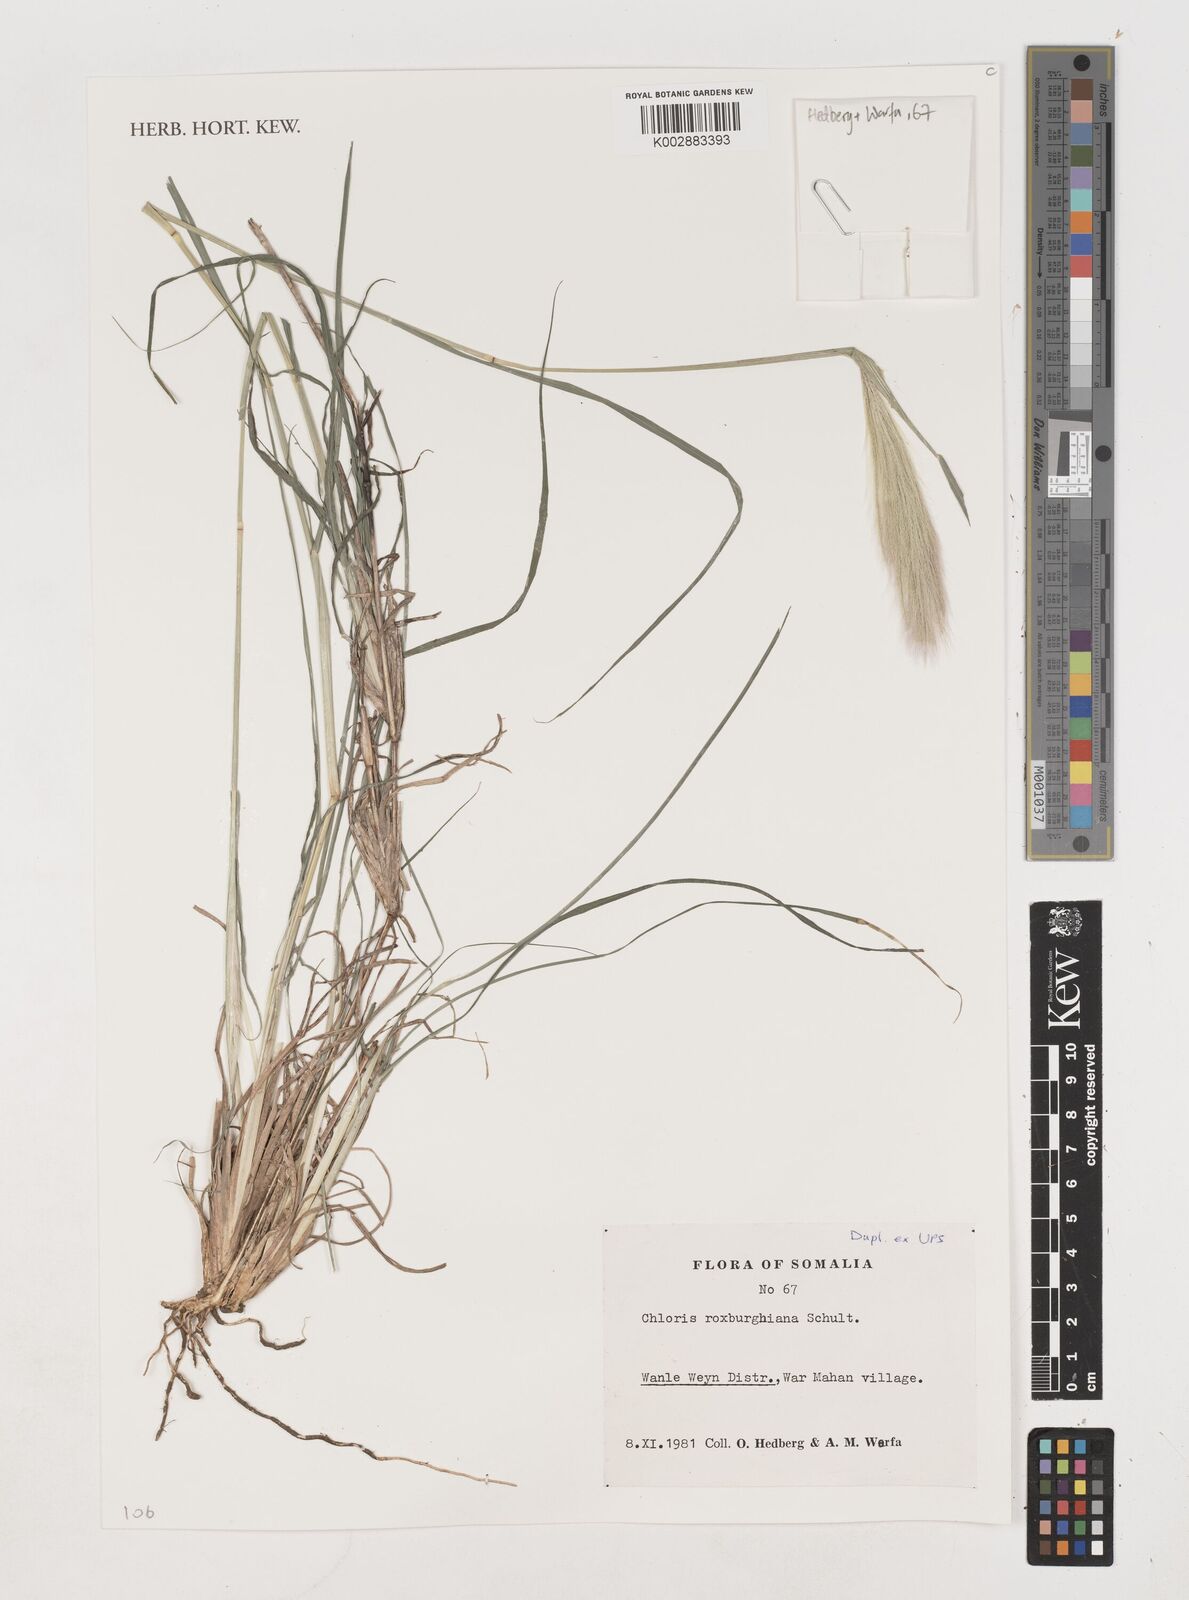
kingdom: Plantae
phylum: Tracheophyta
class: Liliopsida
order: Poales
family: Poaceae
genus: Tetrapogon
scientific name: Tetrapogon roxburghiana
